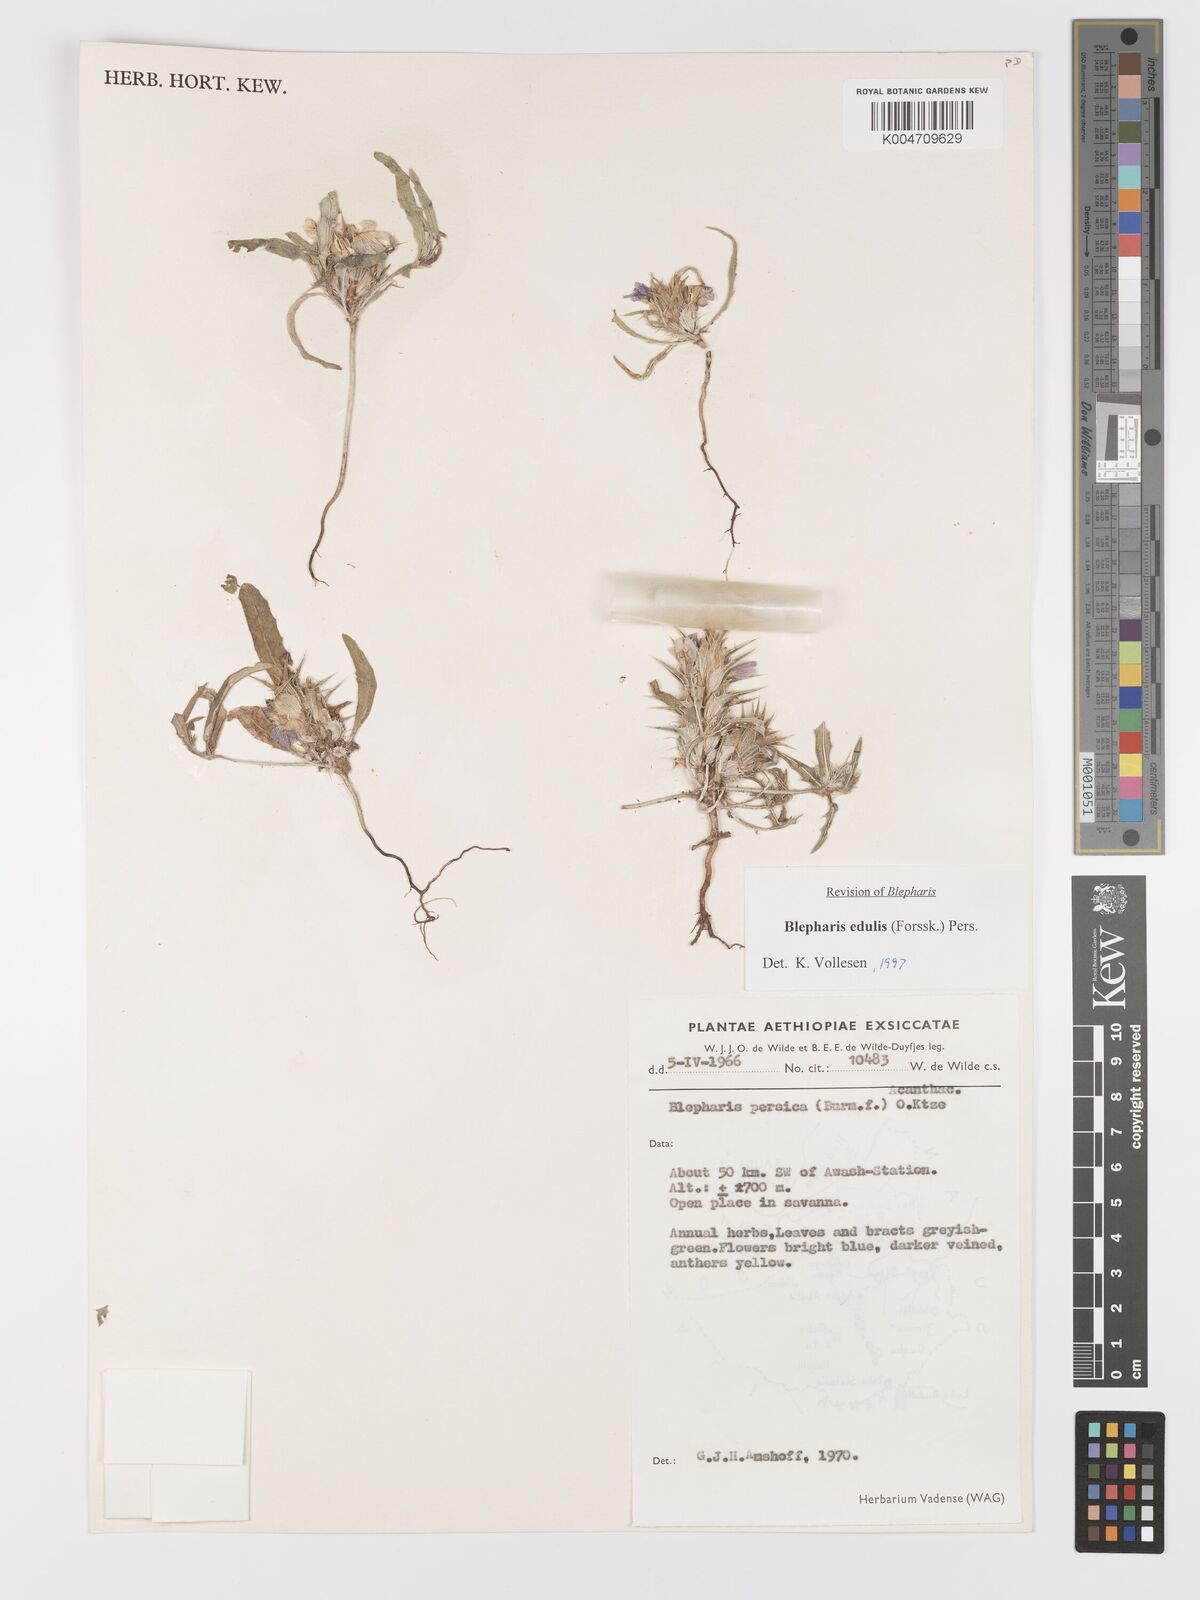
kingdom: Plantae
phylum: Tracheophyta
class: Magnoliopsida
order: Lamiales
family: Acanthaceae
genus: Blepharis
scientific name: Blepharis edulis
